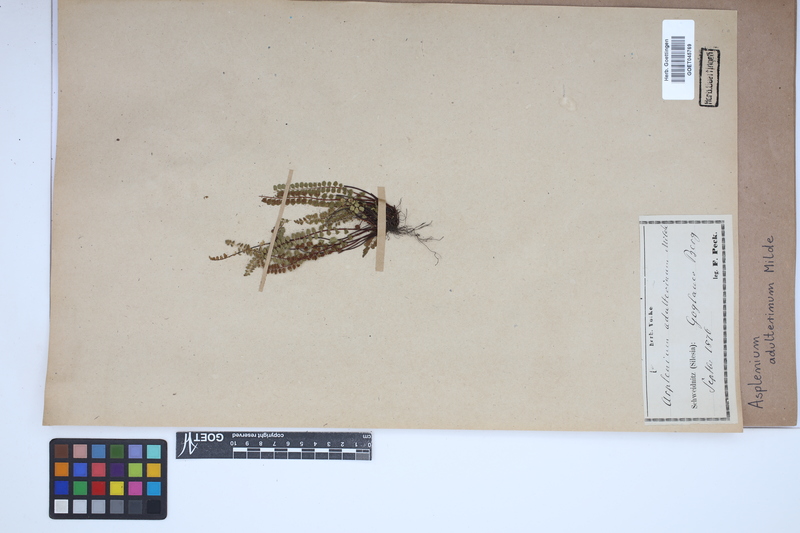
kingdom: Plantae
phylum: Tracheophyta
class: Polypodiopsida
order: Polypodiales
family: Aspleniaceae
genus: Asplenium
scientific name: Asplenium adulterinum
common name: Adulterated spleenwort
